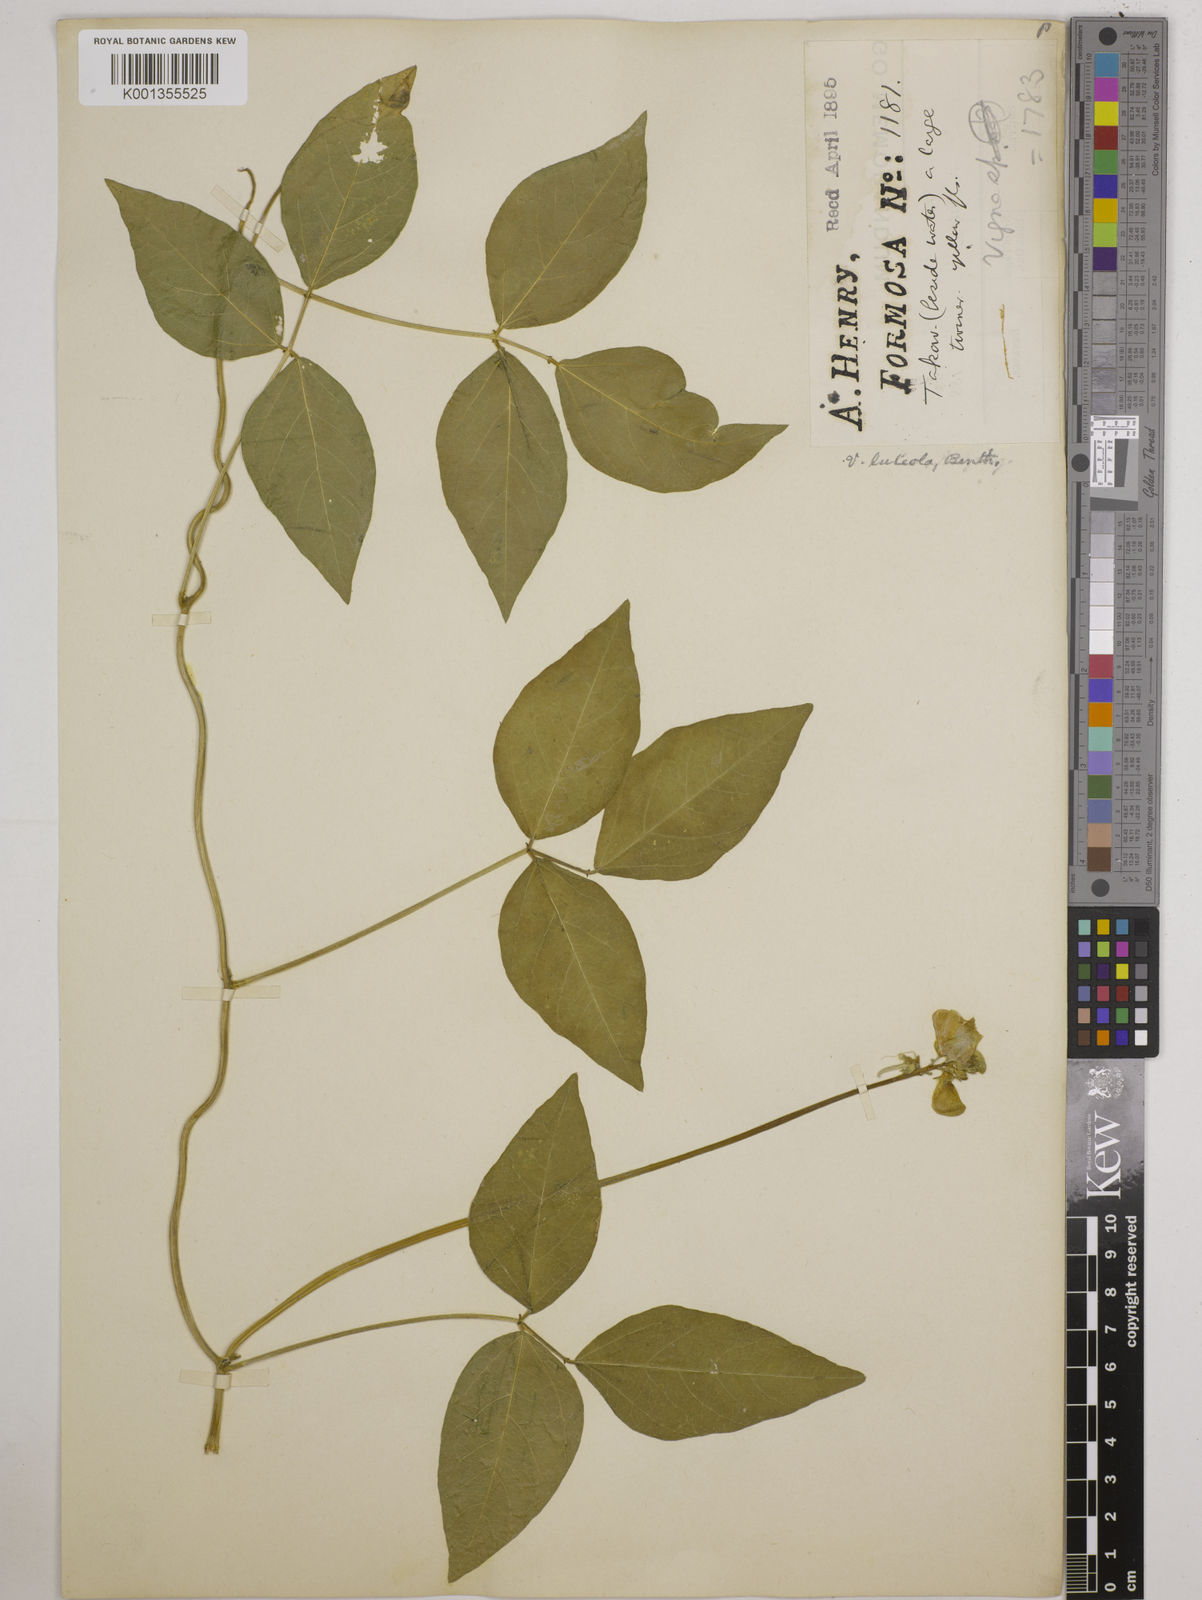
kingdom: Plantae
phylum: Tracheophyta
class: Magnoliopsida
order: Fabales
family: Fabaceae
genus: Vigna
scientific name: Vigna luteola
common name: Hairypod cowpea
